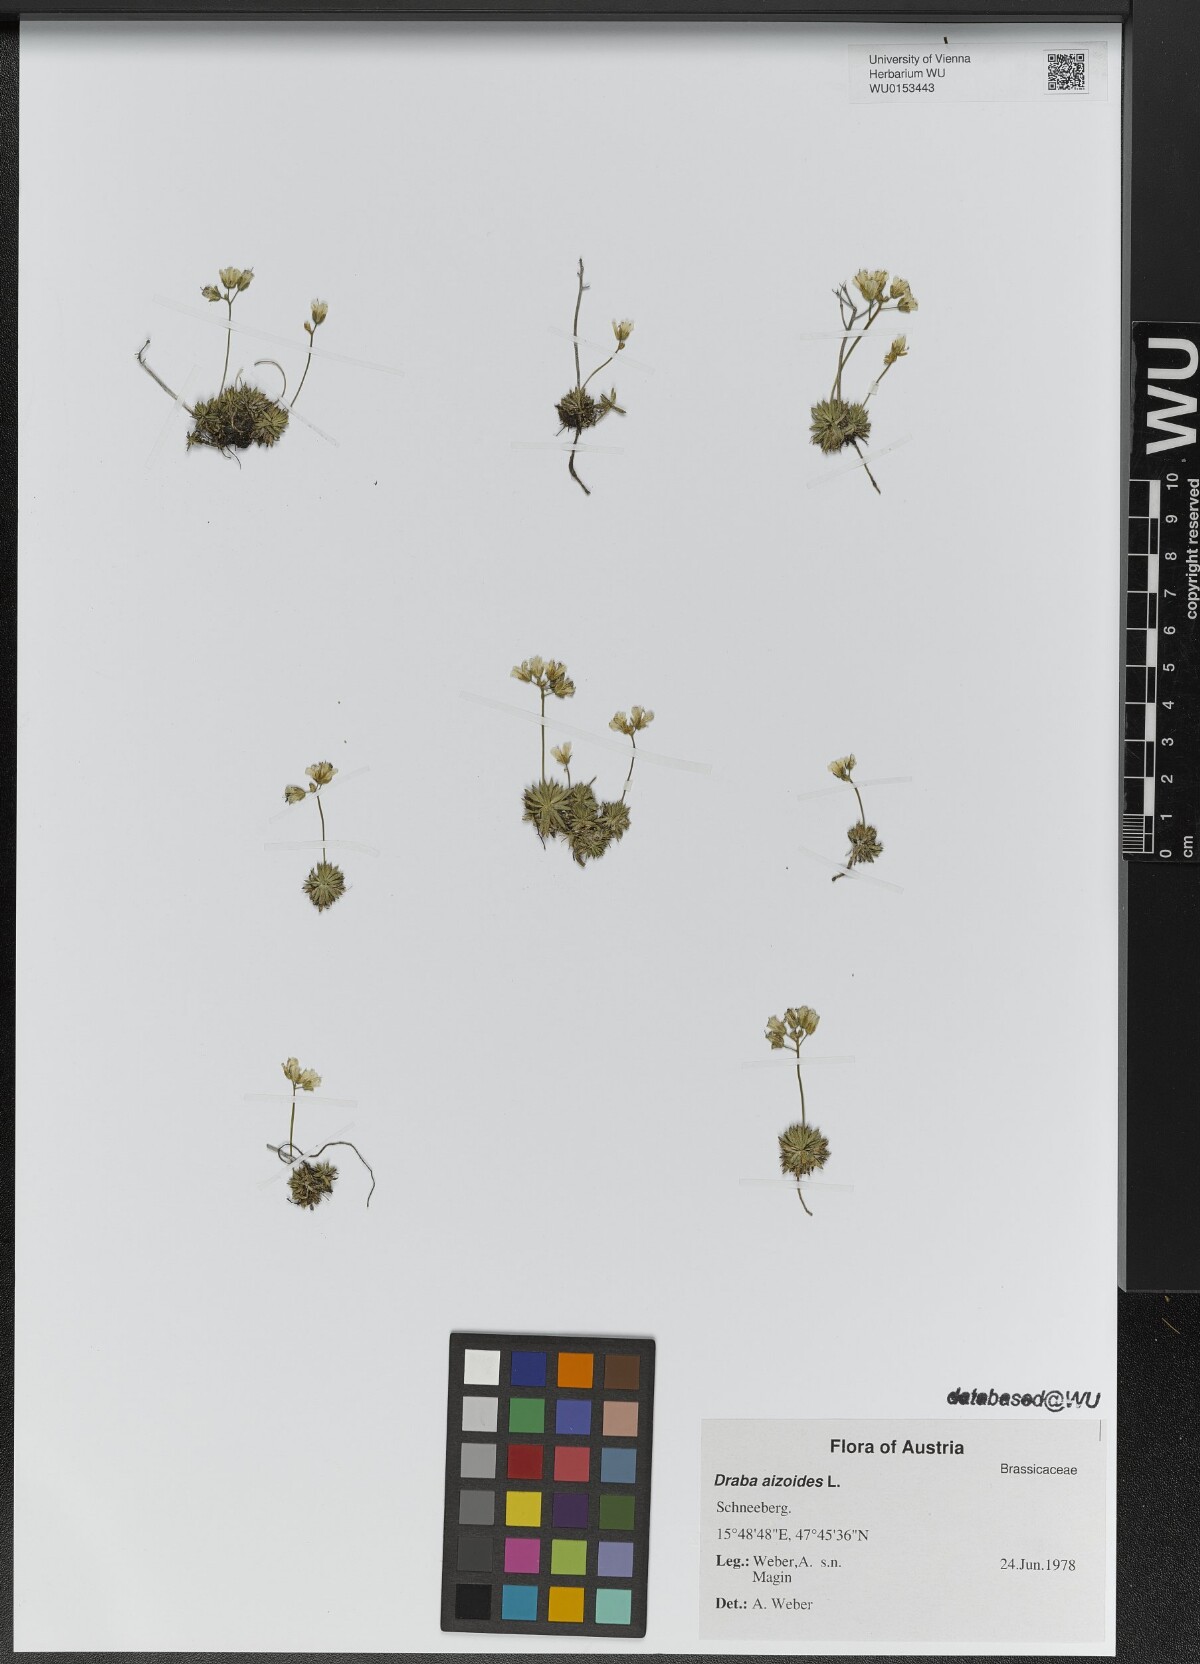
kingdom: Plantae
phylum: Tracheophyta
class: Magnoliopsida
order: Brassicales
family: Brassicaceae
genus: Draba
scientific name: Draba aizoides
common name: Yellow whitlowgrass
